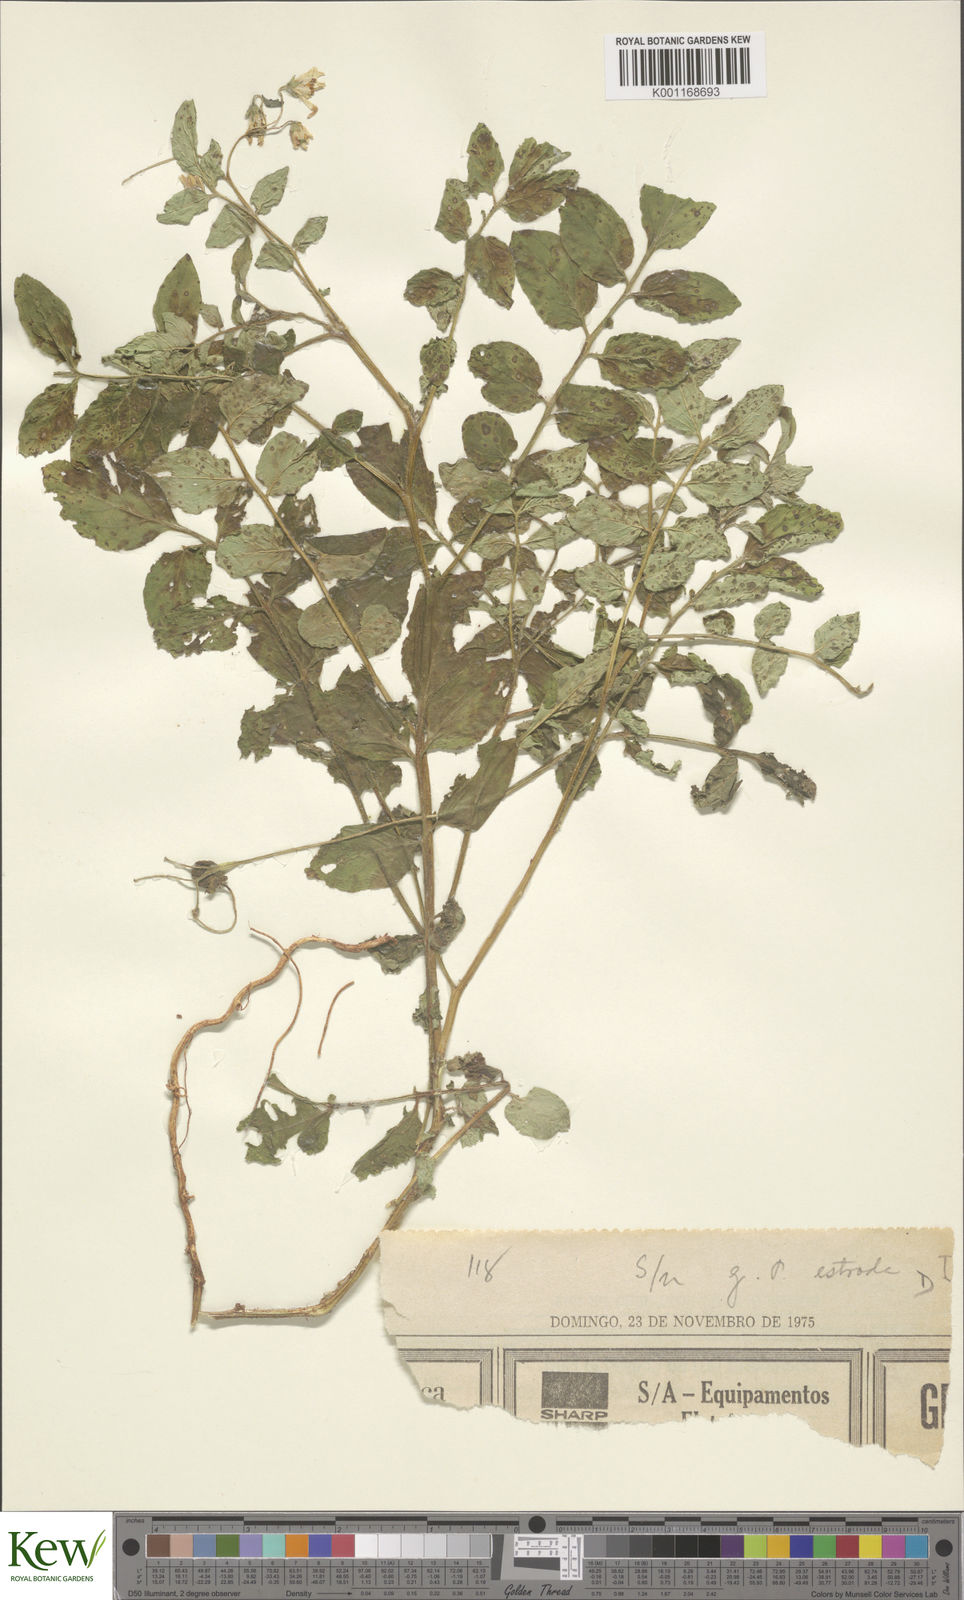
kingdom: Plantae
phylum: Tracheophyta
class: Magnoliopsida
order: Solanales
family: Solanaceae
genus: Solanum
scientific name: Solanum chacoense
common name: Chaco potato
